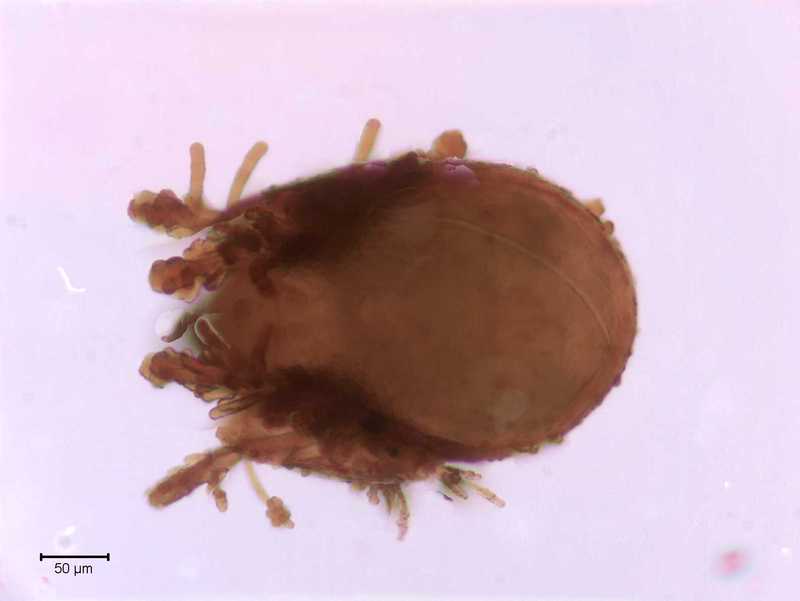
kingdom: Animalia
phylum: Arthropoda
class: Arachnida
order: Sarcoptiformes
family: Galumnidae
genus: Allogalumna
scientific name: Allogalumna exigua
